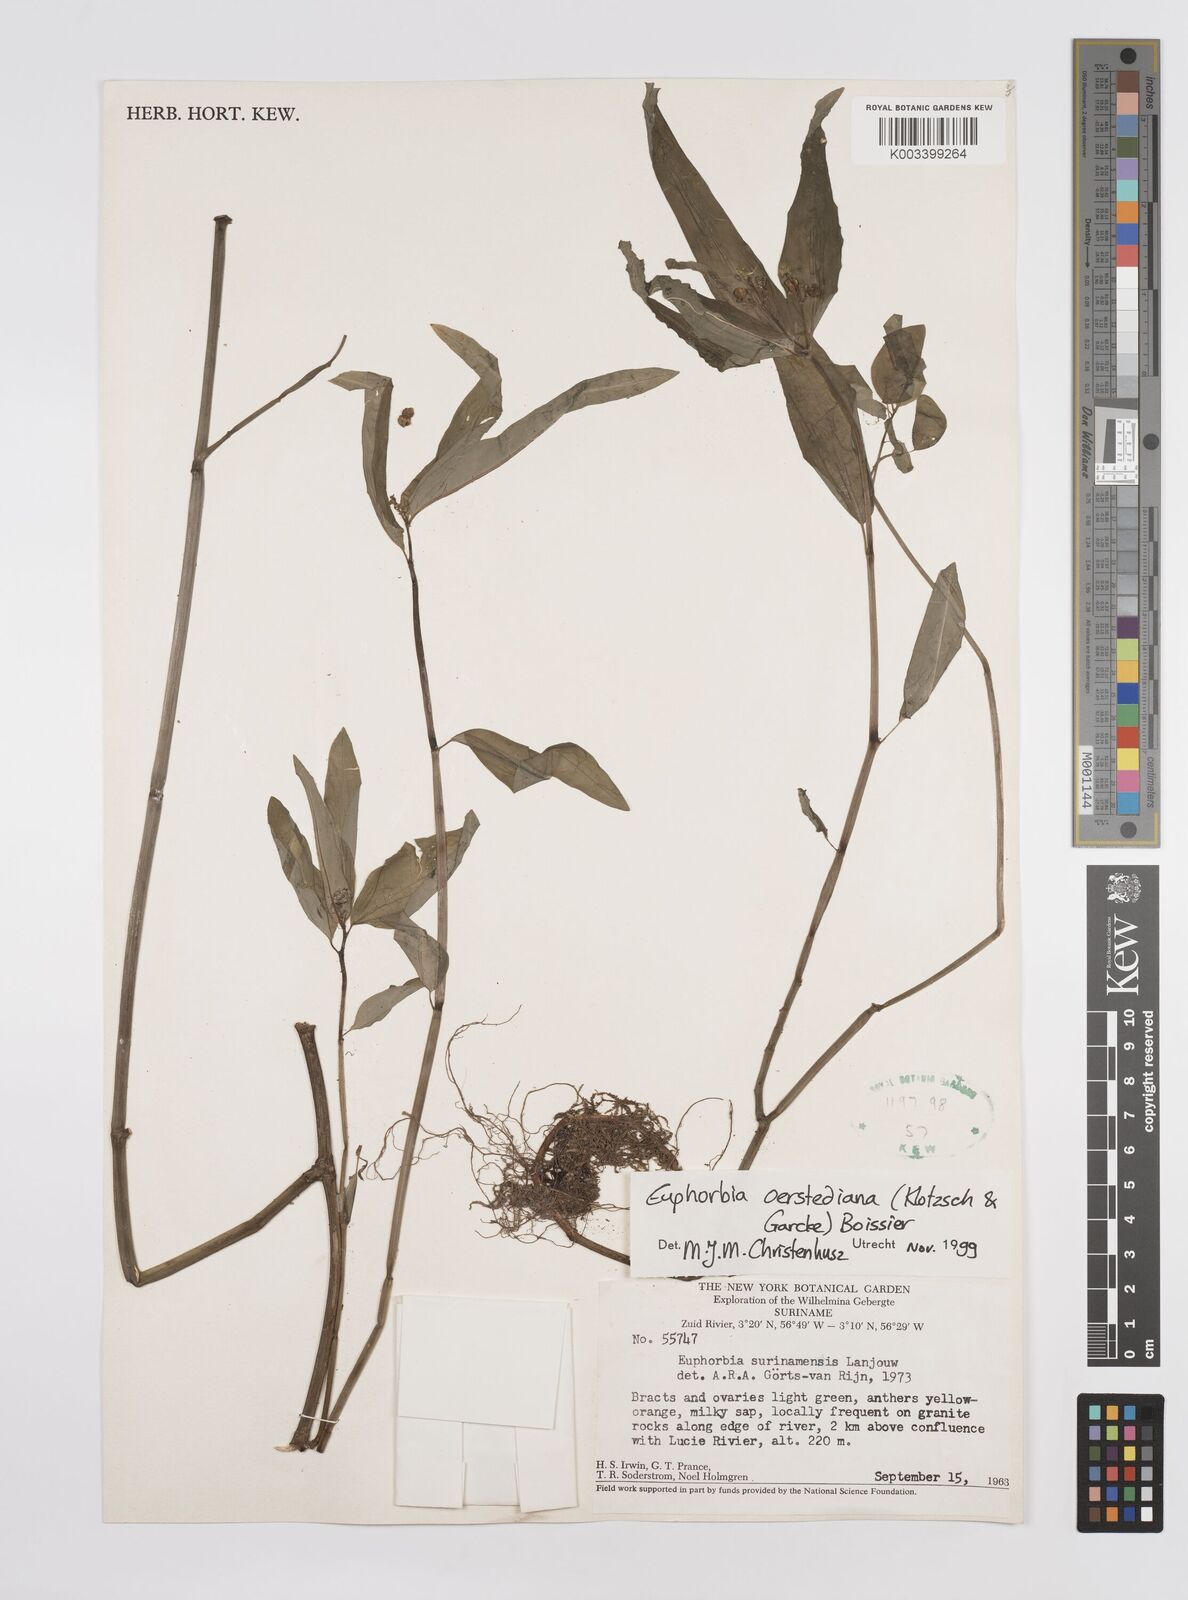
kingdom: Plantae
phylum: Tracheophyta
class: Magnoliopsida
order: Malpighiales
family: Euphorbiaceae
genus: Euphorbia
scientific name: Euphorbia oerstediana
